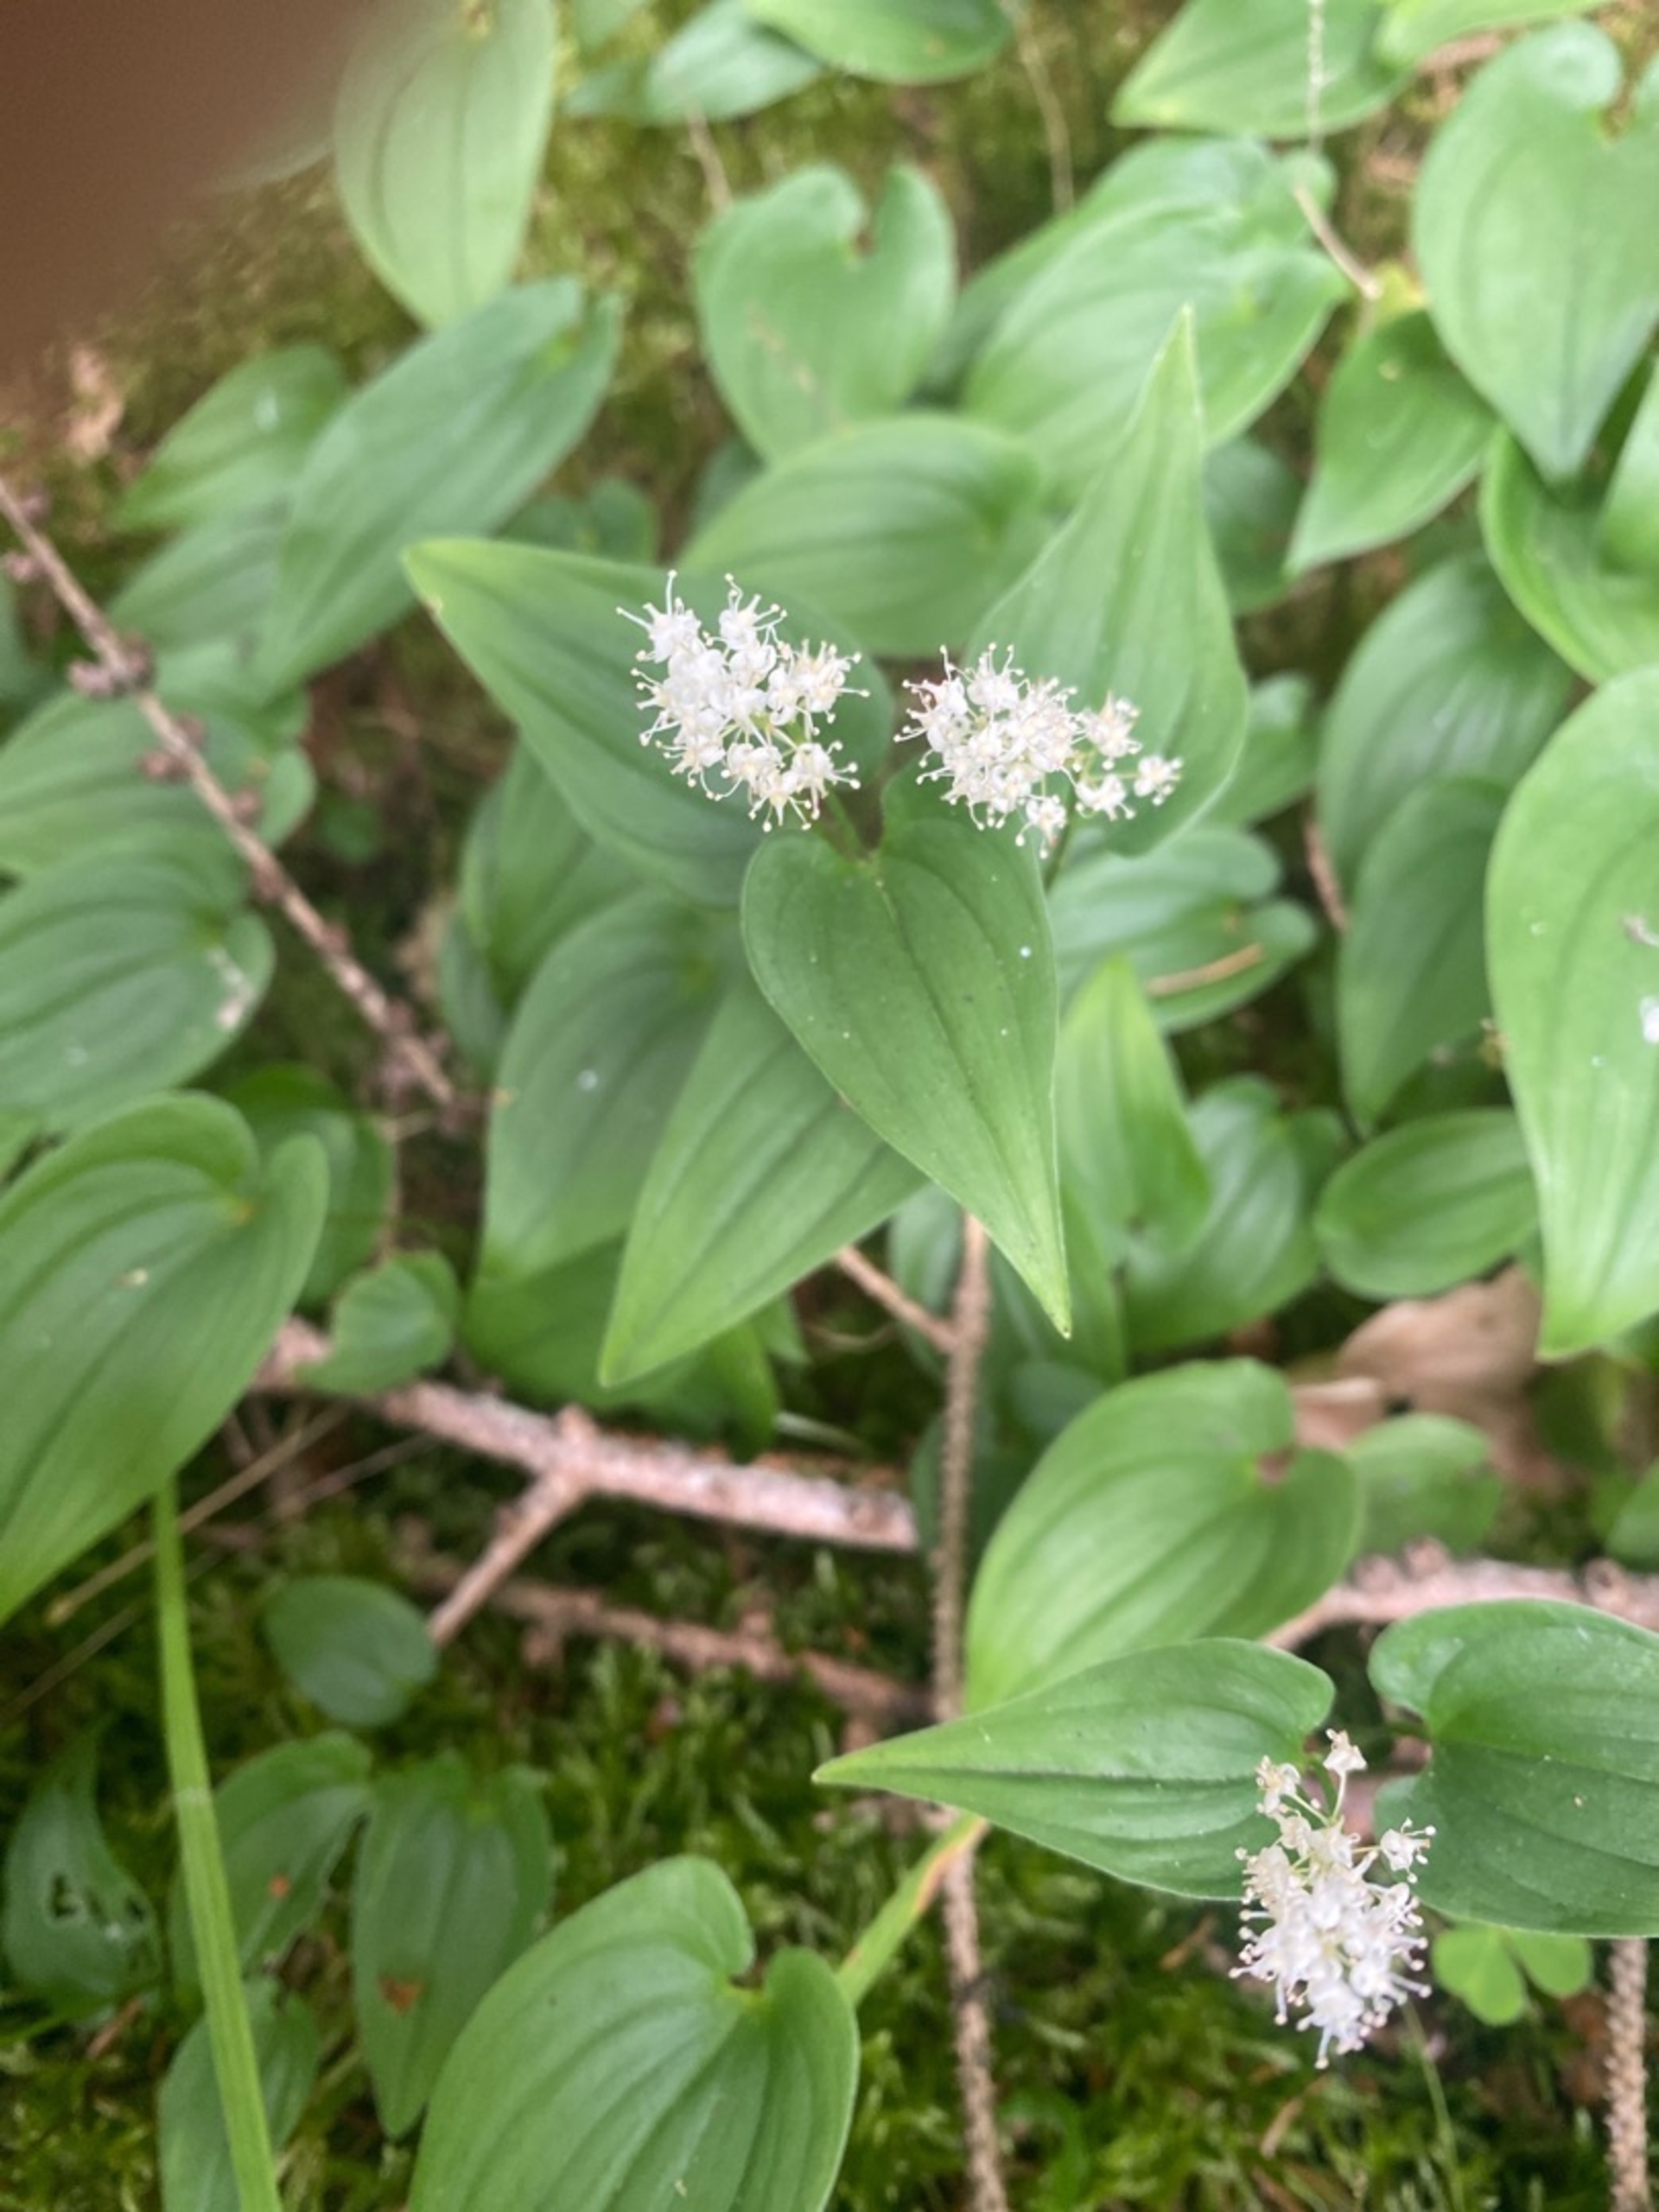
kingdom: Plantae
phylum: Tracheophyta
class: Liliopsida
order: Asparagales
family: Asparagaceae
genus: Maianthemum
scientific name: Maianthemum bifolium
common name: Majblomst
